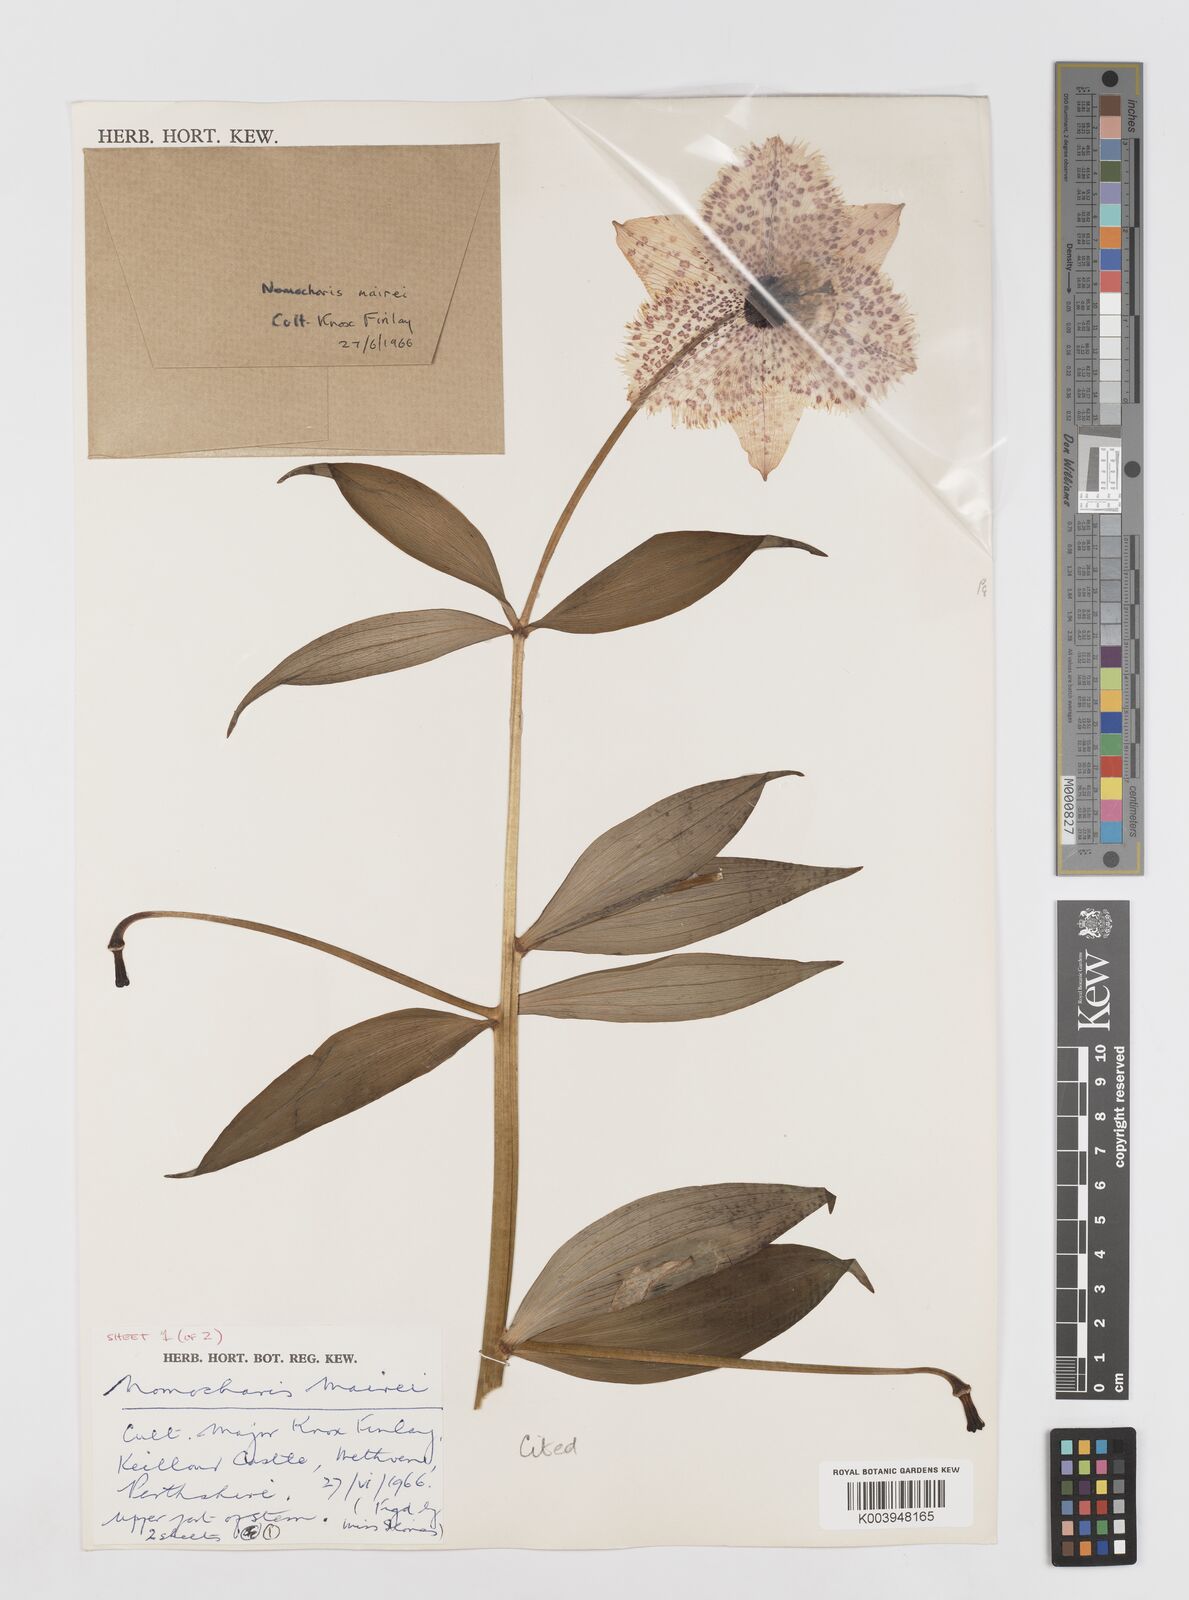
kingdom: Plantae
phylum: Tracheophyta
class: Liliopsida
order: Liliales
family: Liliaceae
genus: Lilium
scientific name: Lilium pardanthinum
